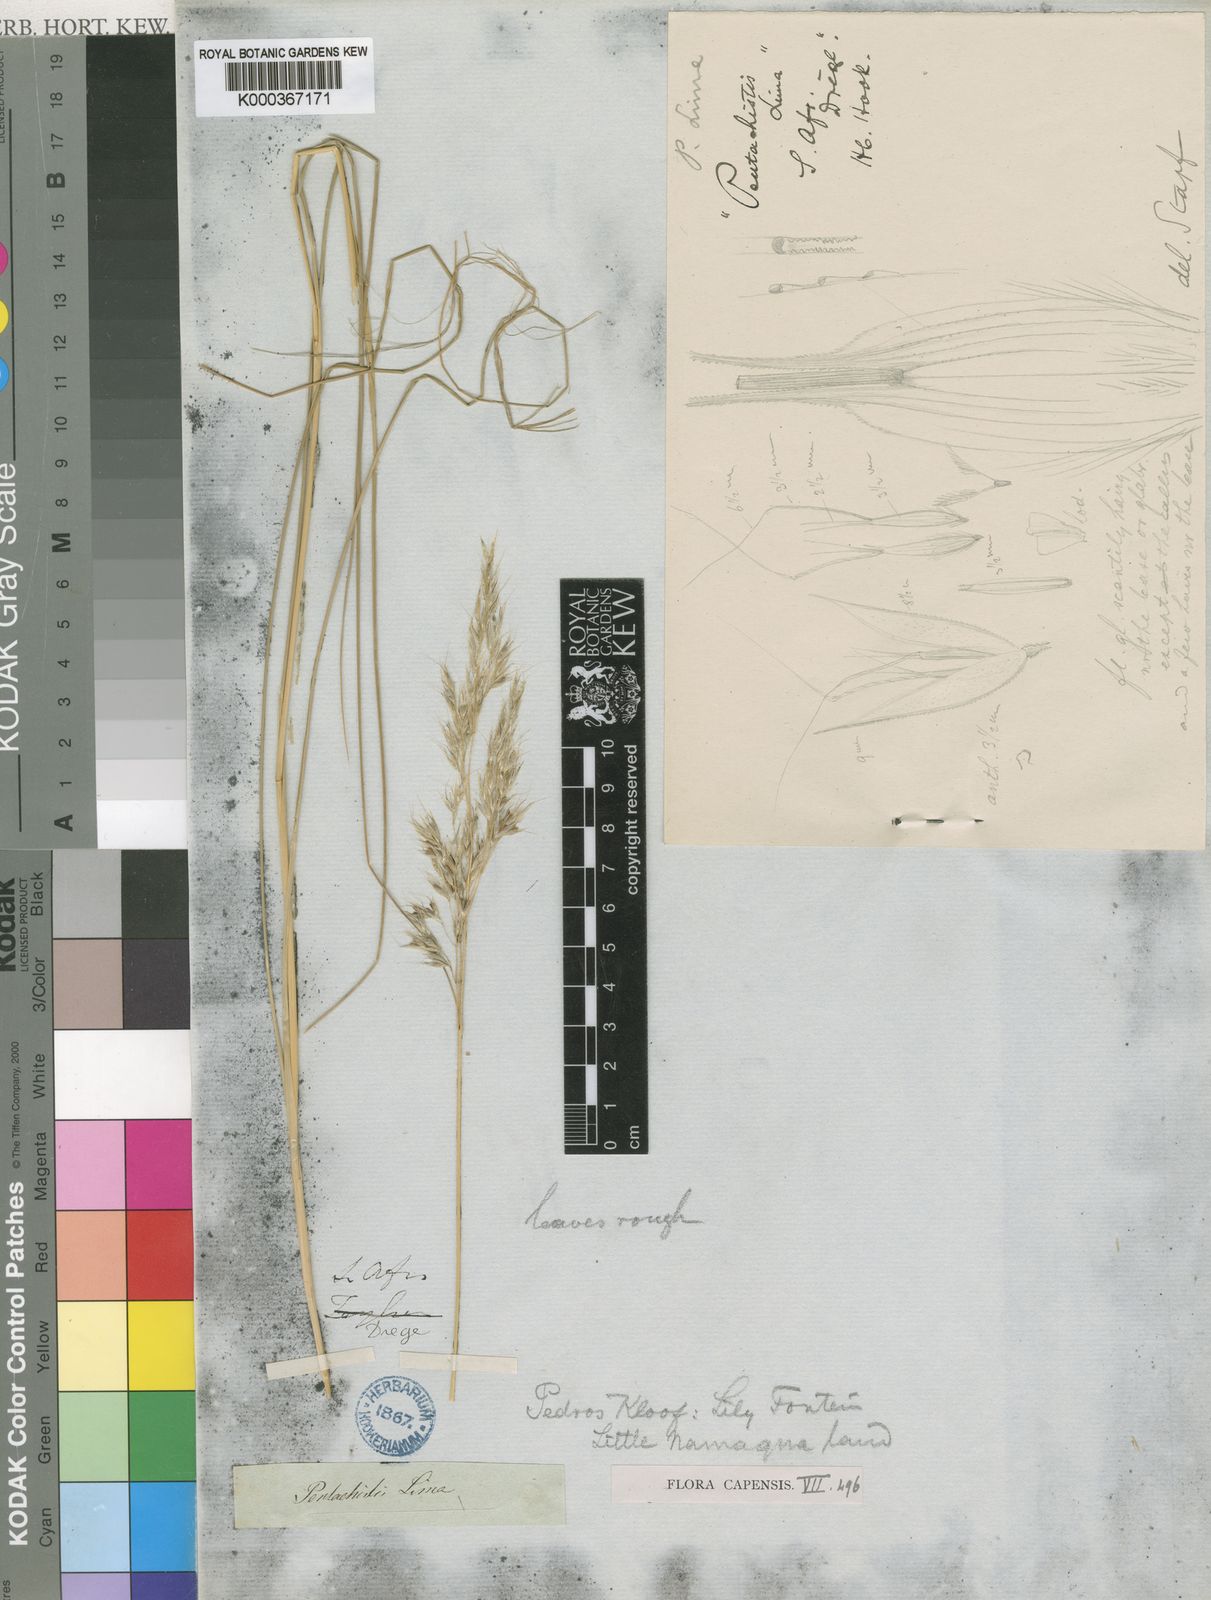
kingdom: Plantae
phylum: Tracheophyta
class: Liliopsida
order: Poales
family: Poaceae
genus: Pentaschistis
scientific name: Pentaschistis
